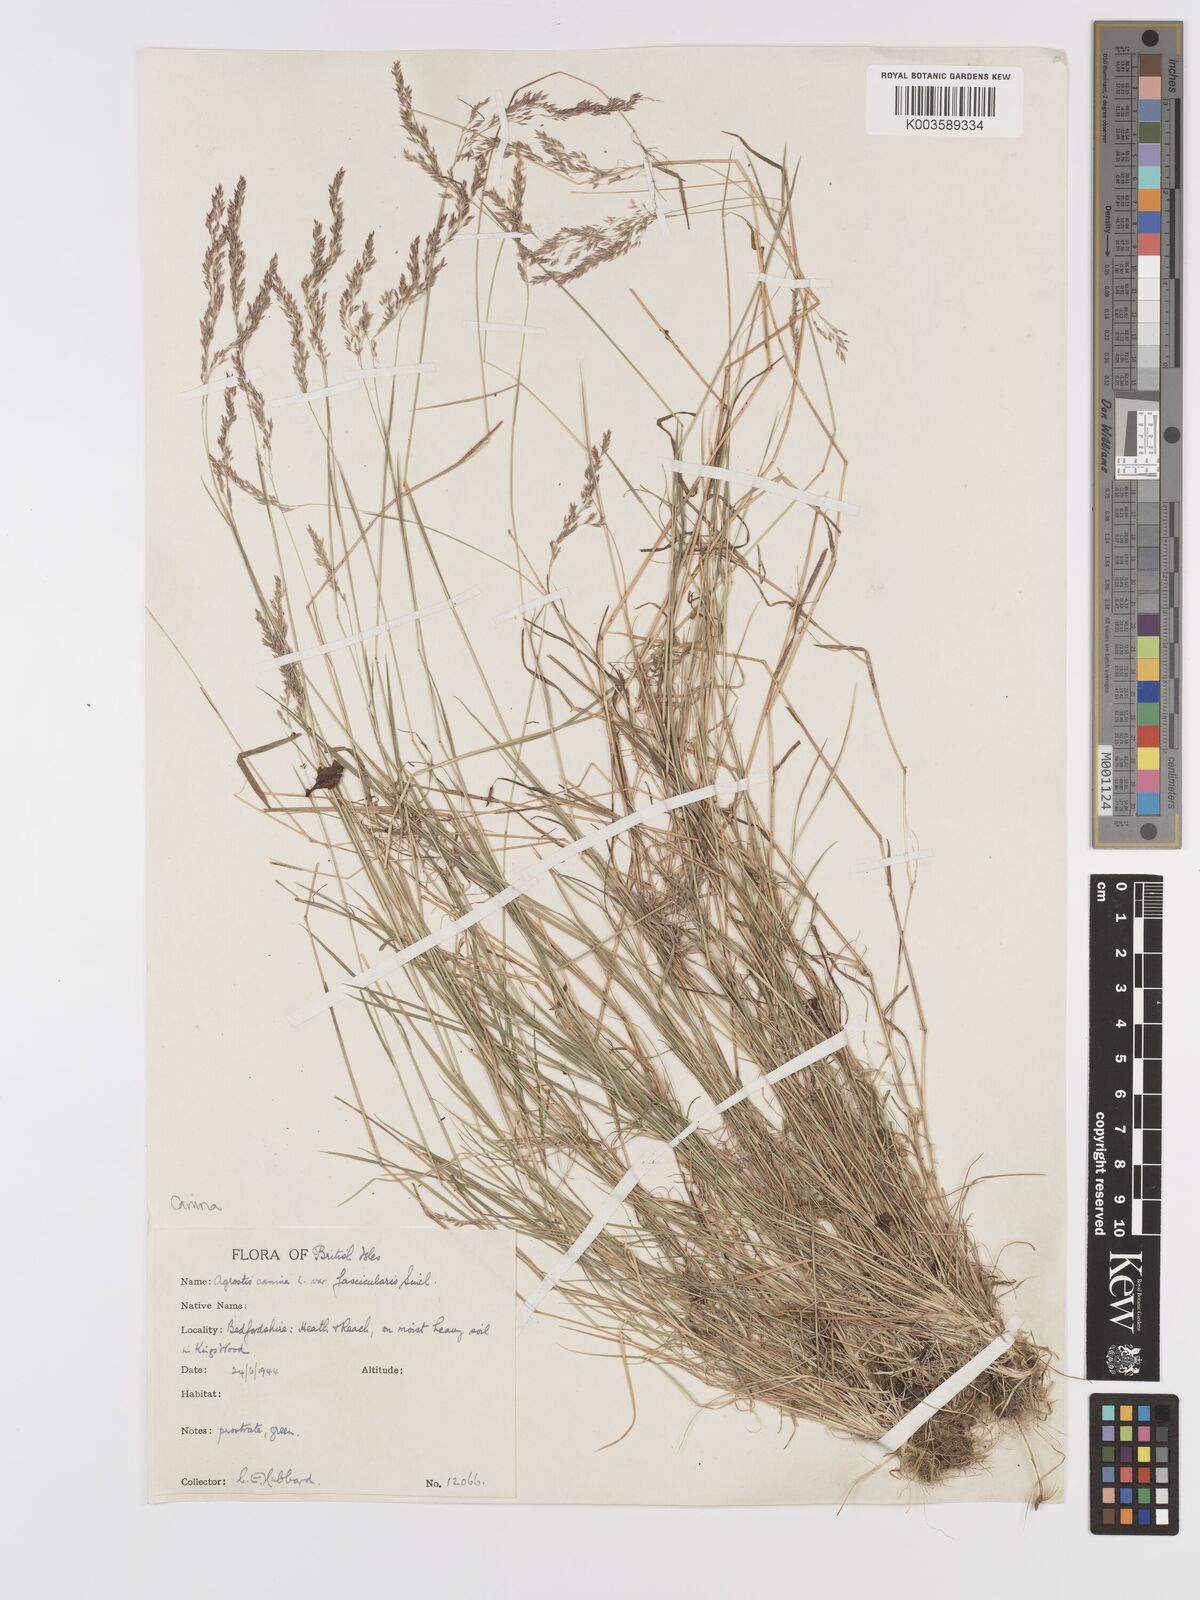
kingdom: Plantae
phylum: Tracheophyta
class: Liliopsida
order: Poales
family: Poaceae
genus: Agrostis
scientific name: Agrostis canina
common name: Velvet bent
